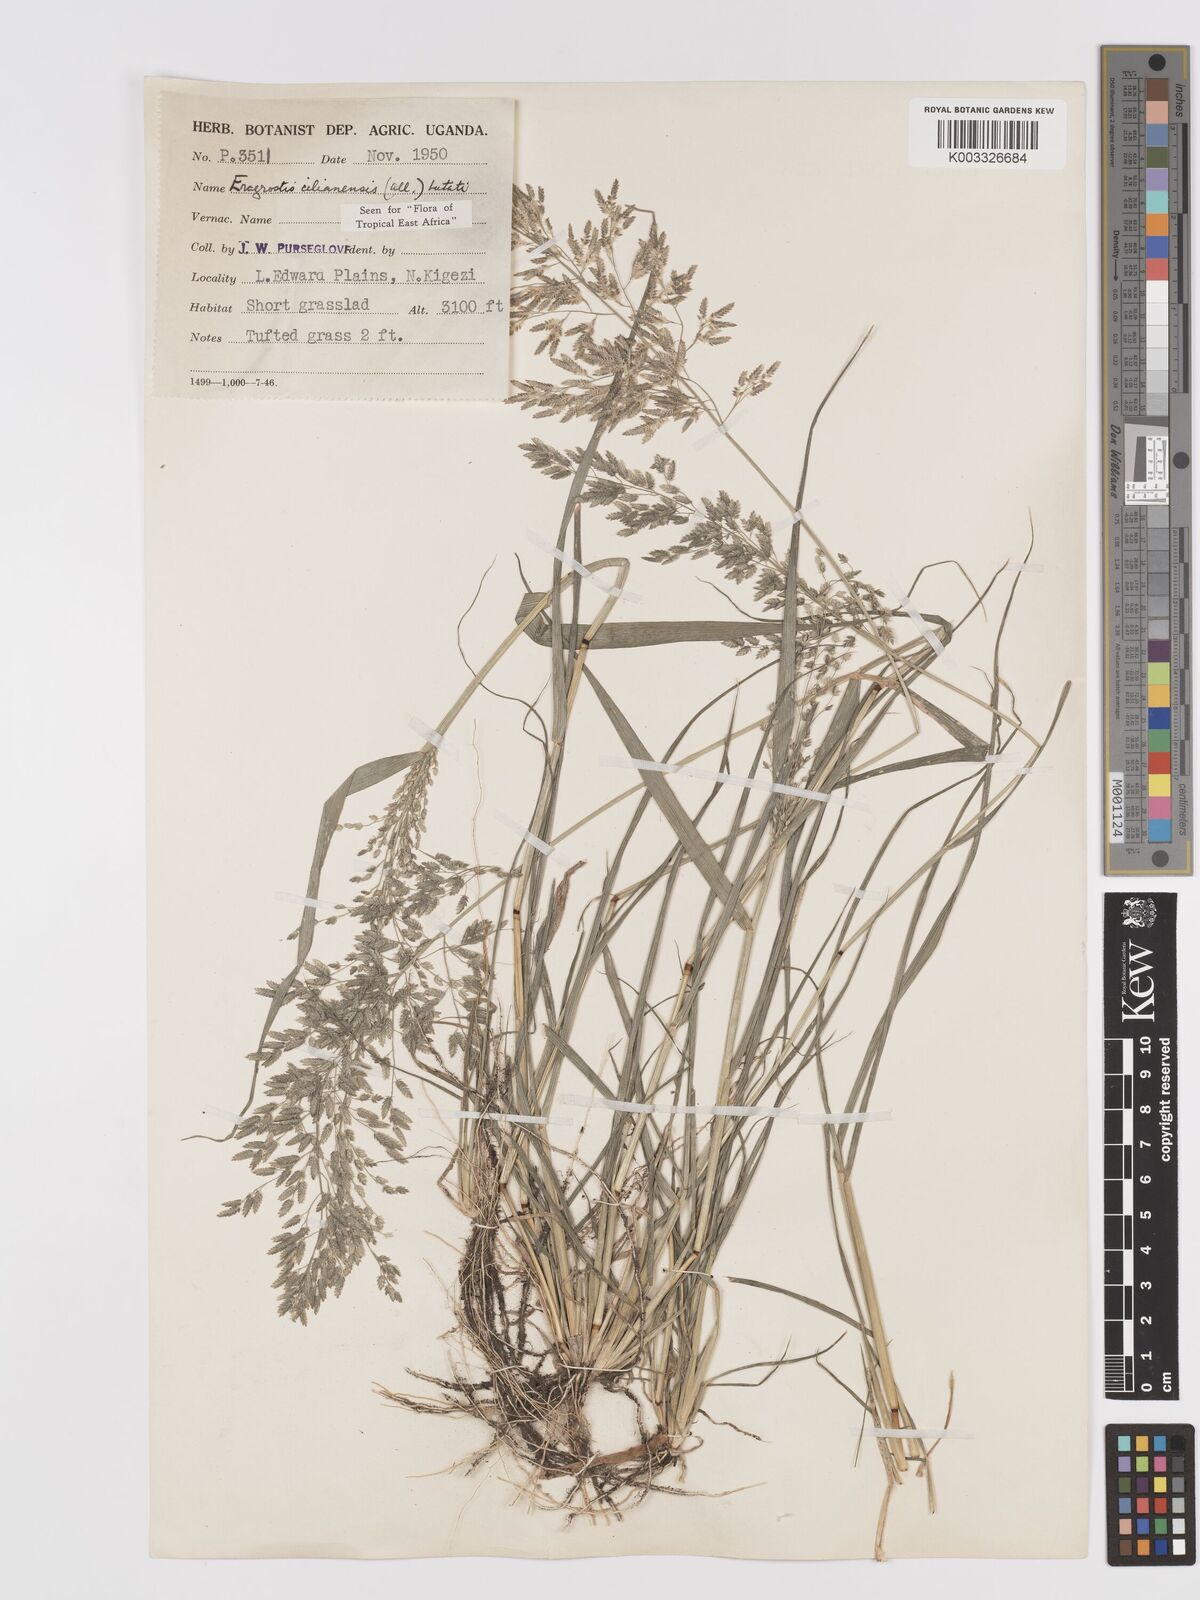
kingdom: Plantae
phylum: Tracheophyta
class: Liliopsida
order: Poales
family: Poaceae
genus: Eragrostis
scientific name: Eragrostis cilianensis
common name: Stinkgrass
